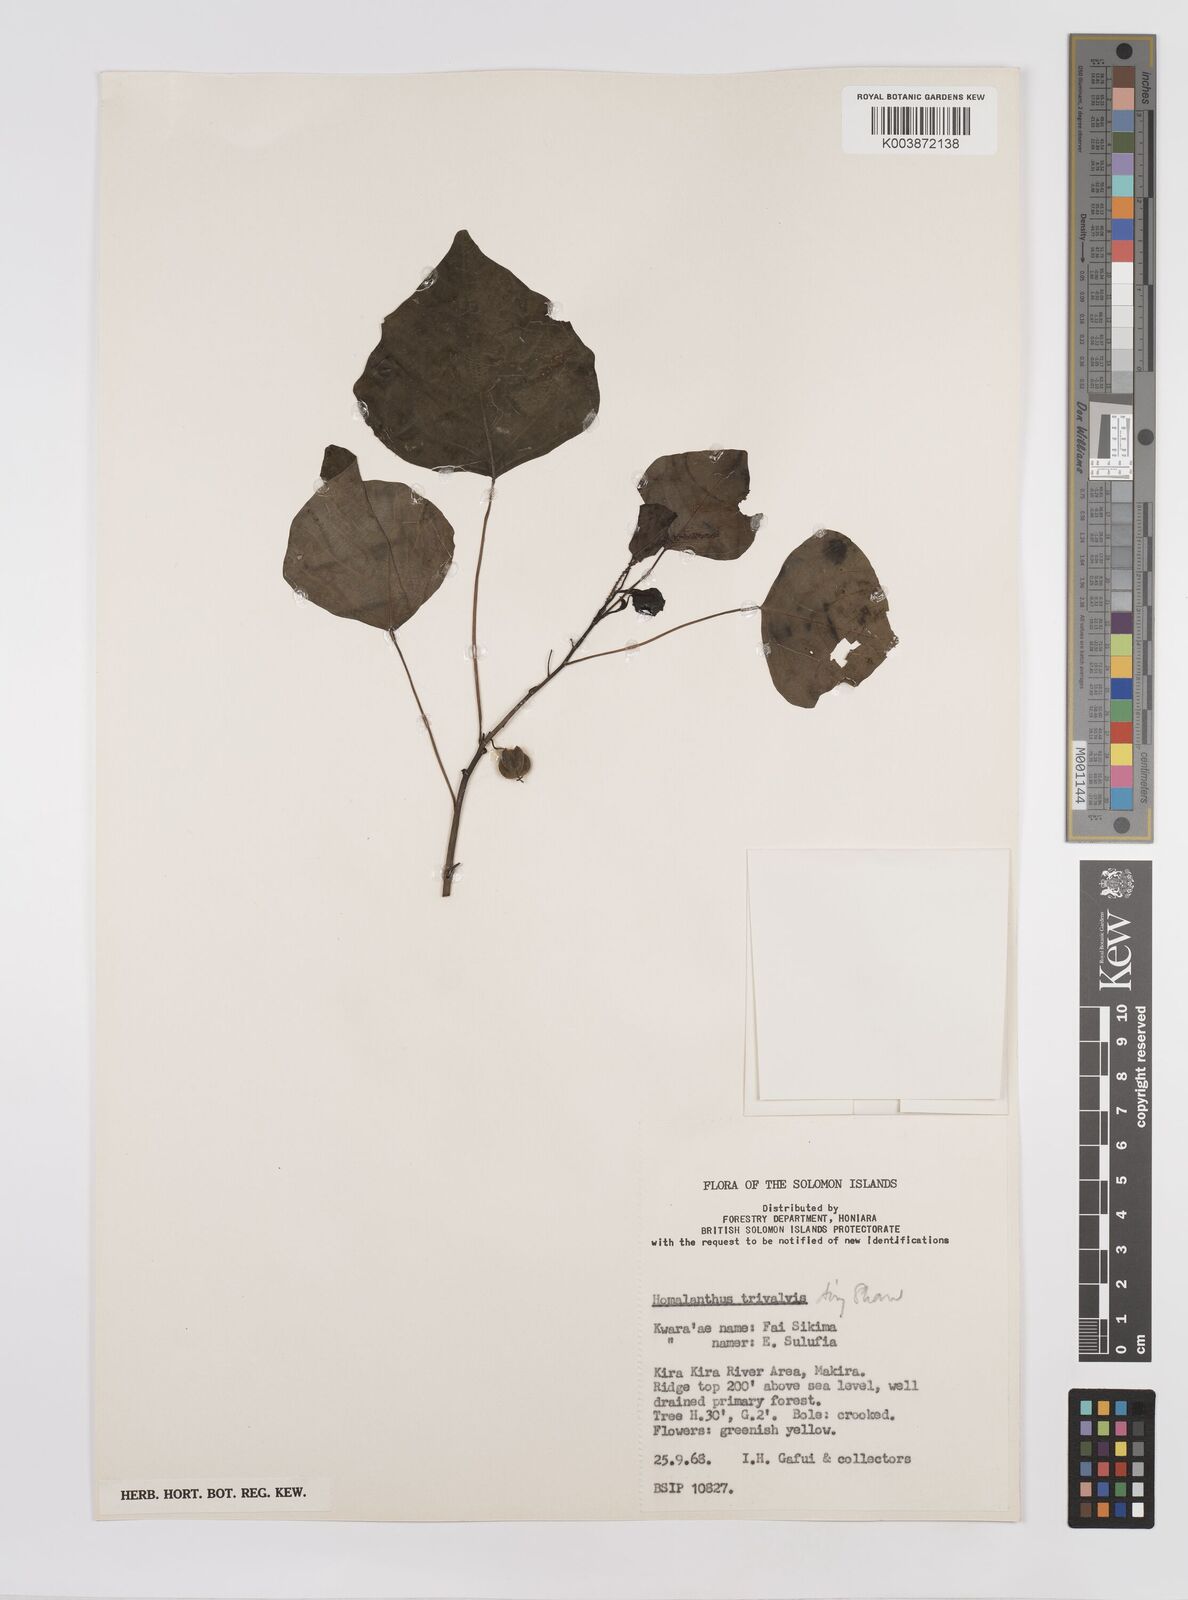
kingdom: Plantae
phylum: Tracheophyta
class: Magnoliopsida
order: Malpighiales
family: Euphorbiaceae
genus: Homalanthus
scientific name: Homalanthus trivalvis
